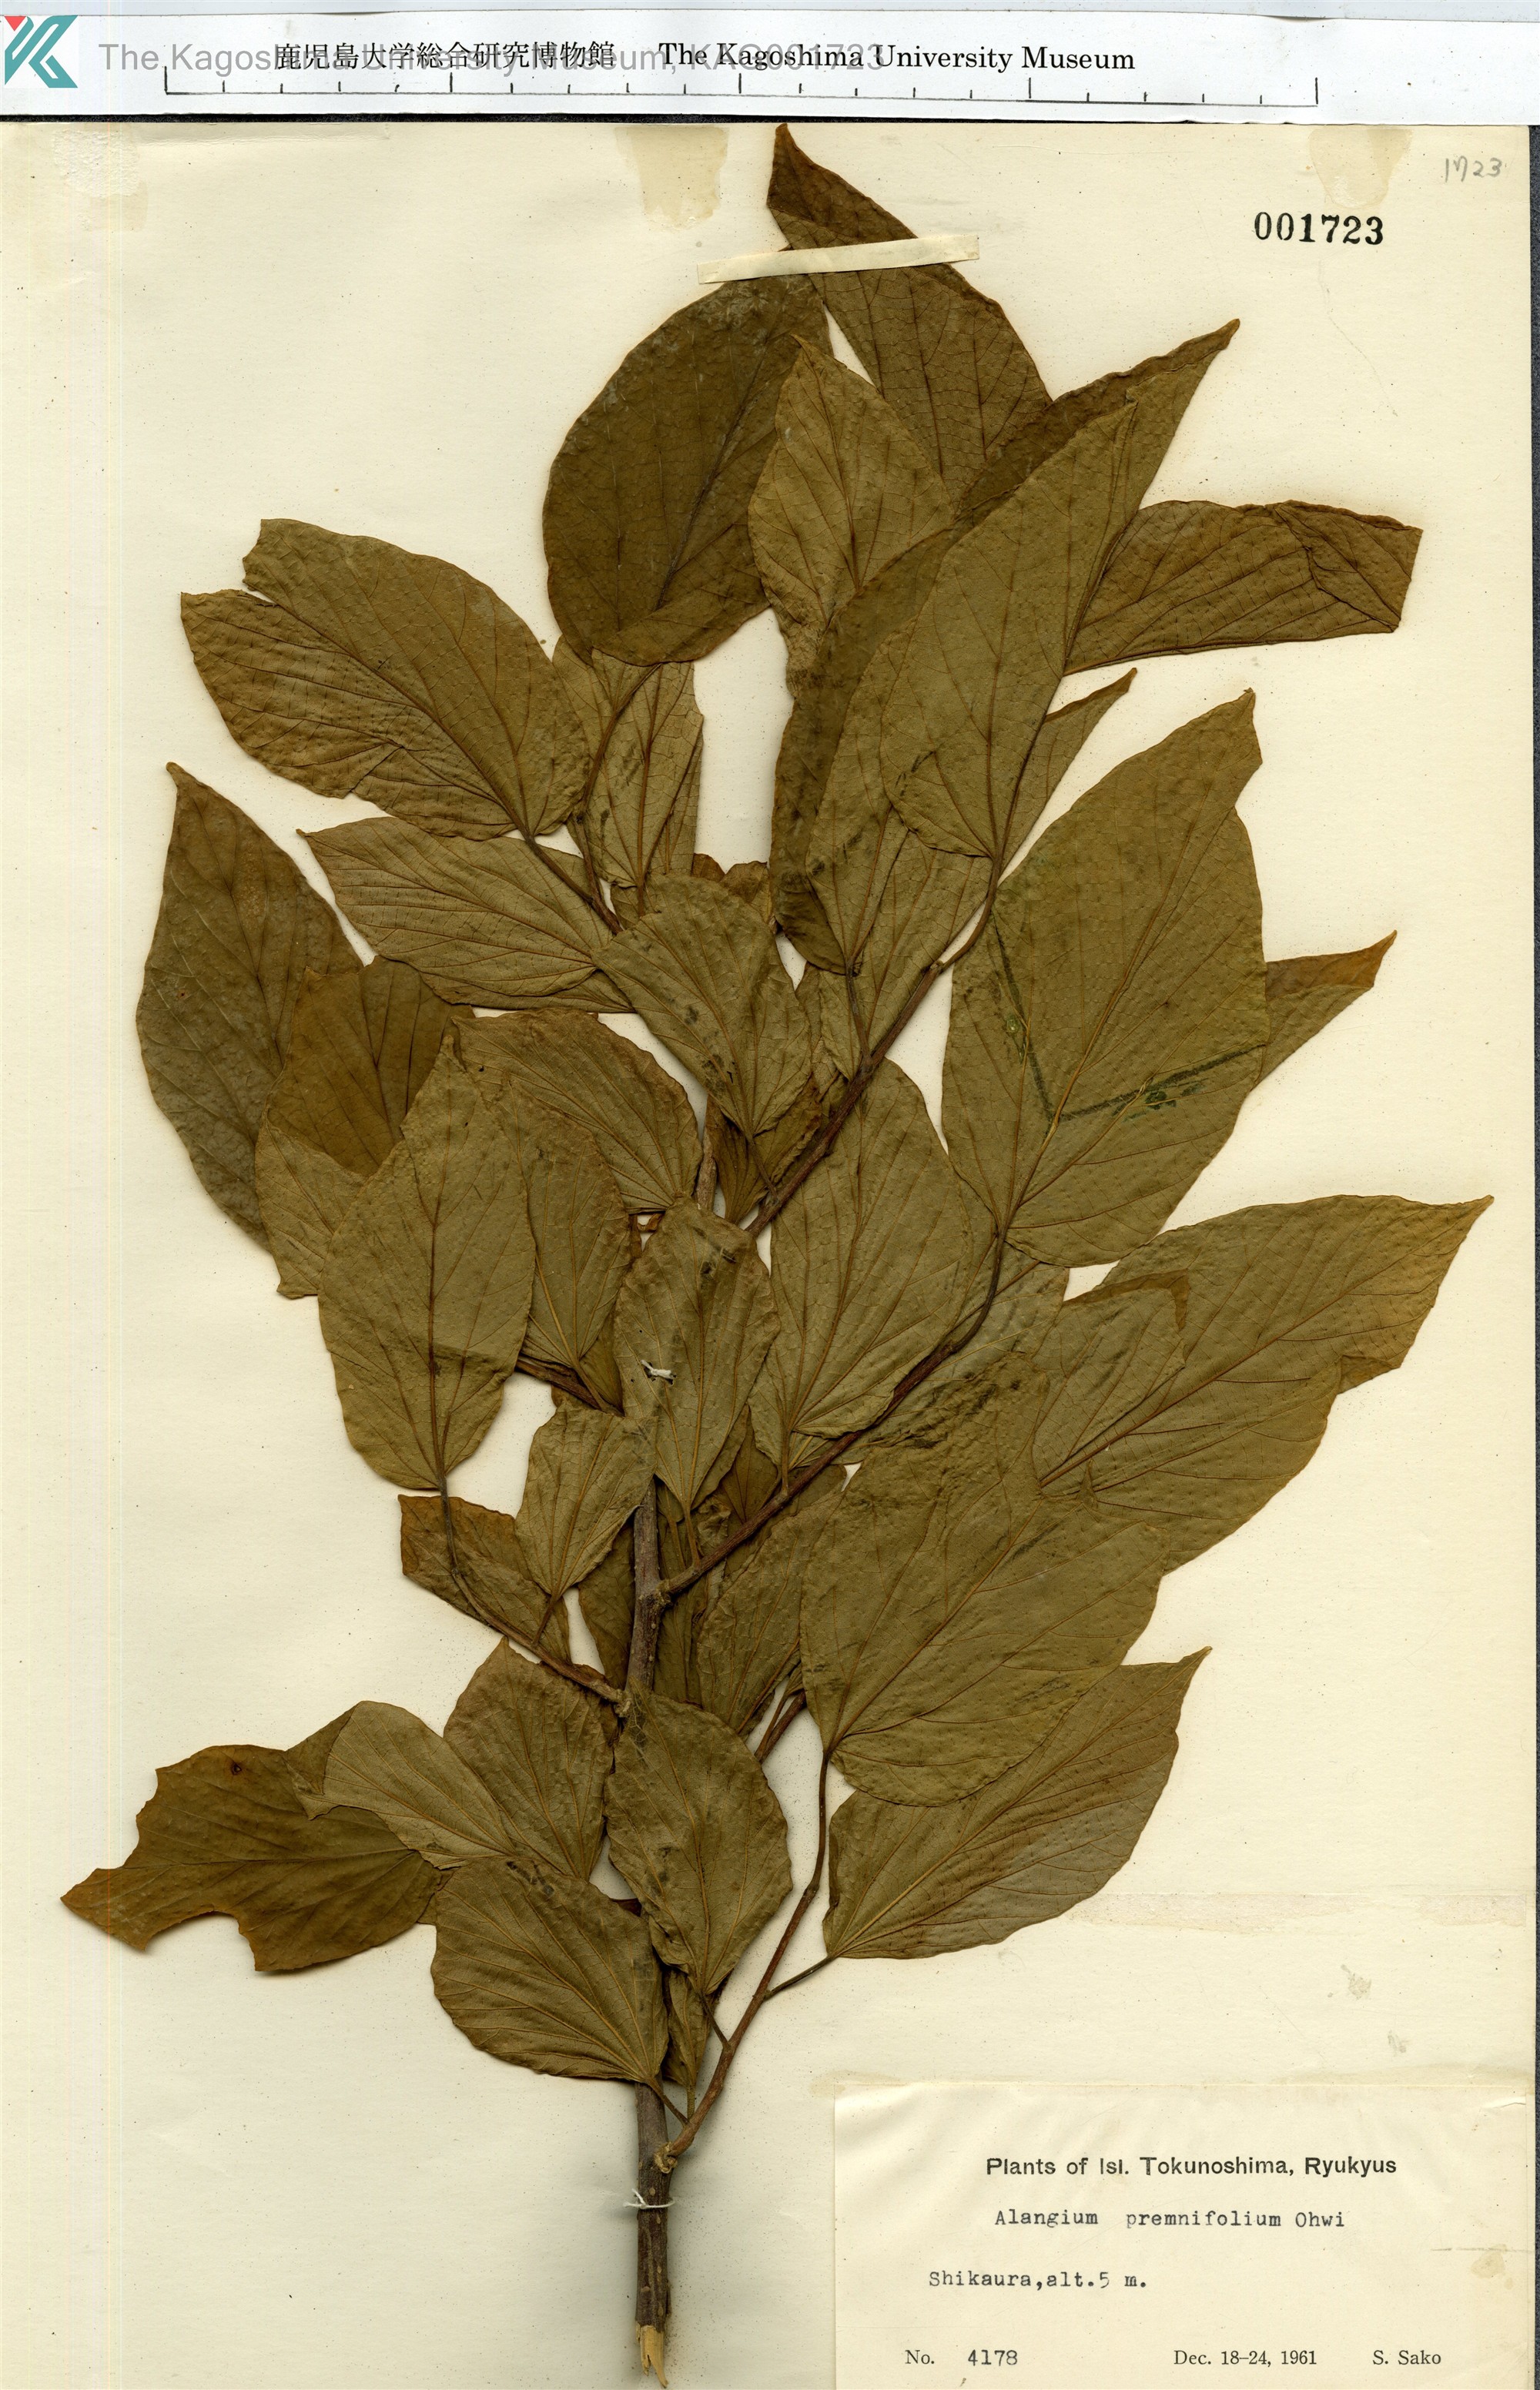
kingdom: Plantae
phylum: Tracheophyta
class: Magnoliopsida
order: Cornales
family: Cornaceae
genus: Alangium
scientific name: Alangium premnifolium
